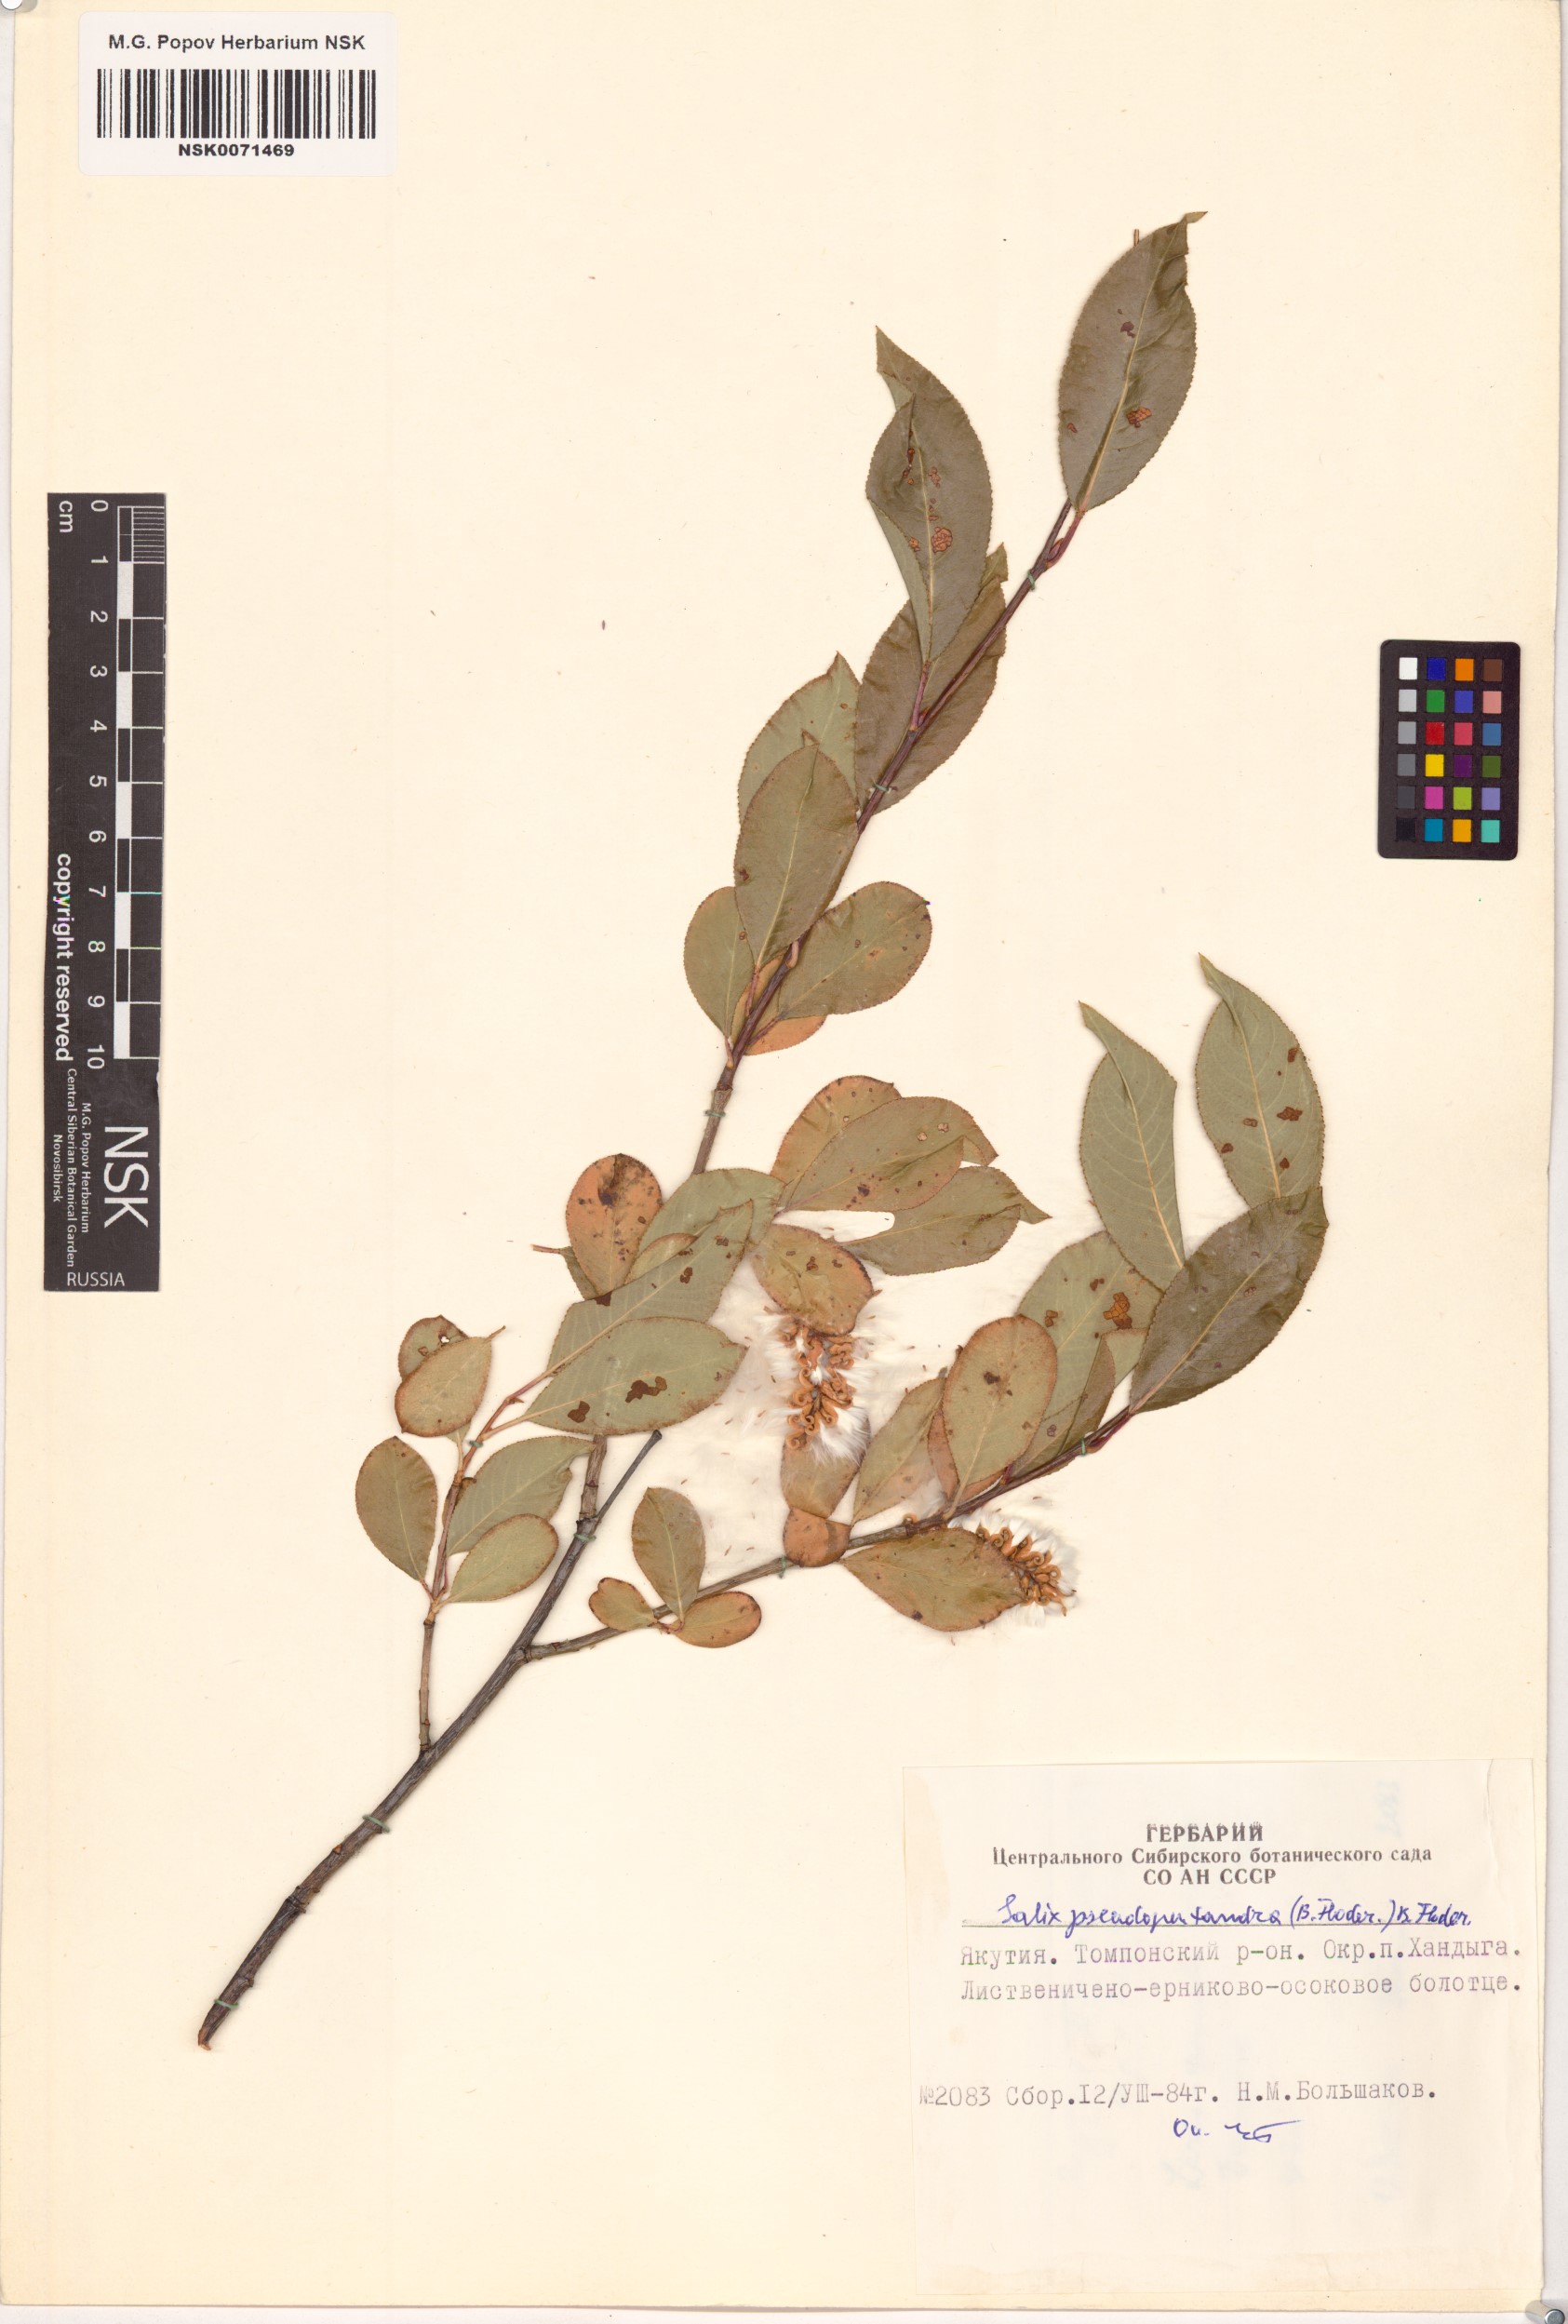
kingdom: Plantae
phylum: Tracheophyta
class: Magnoliopsida
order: Malpighiales
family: Salicaceae
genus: Salix
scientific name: Salix pseudopentandra
